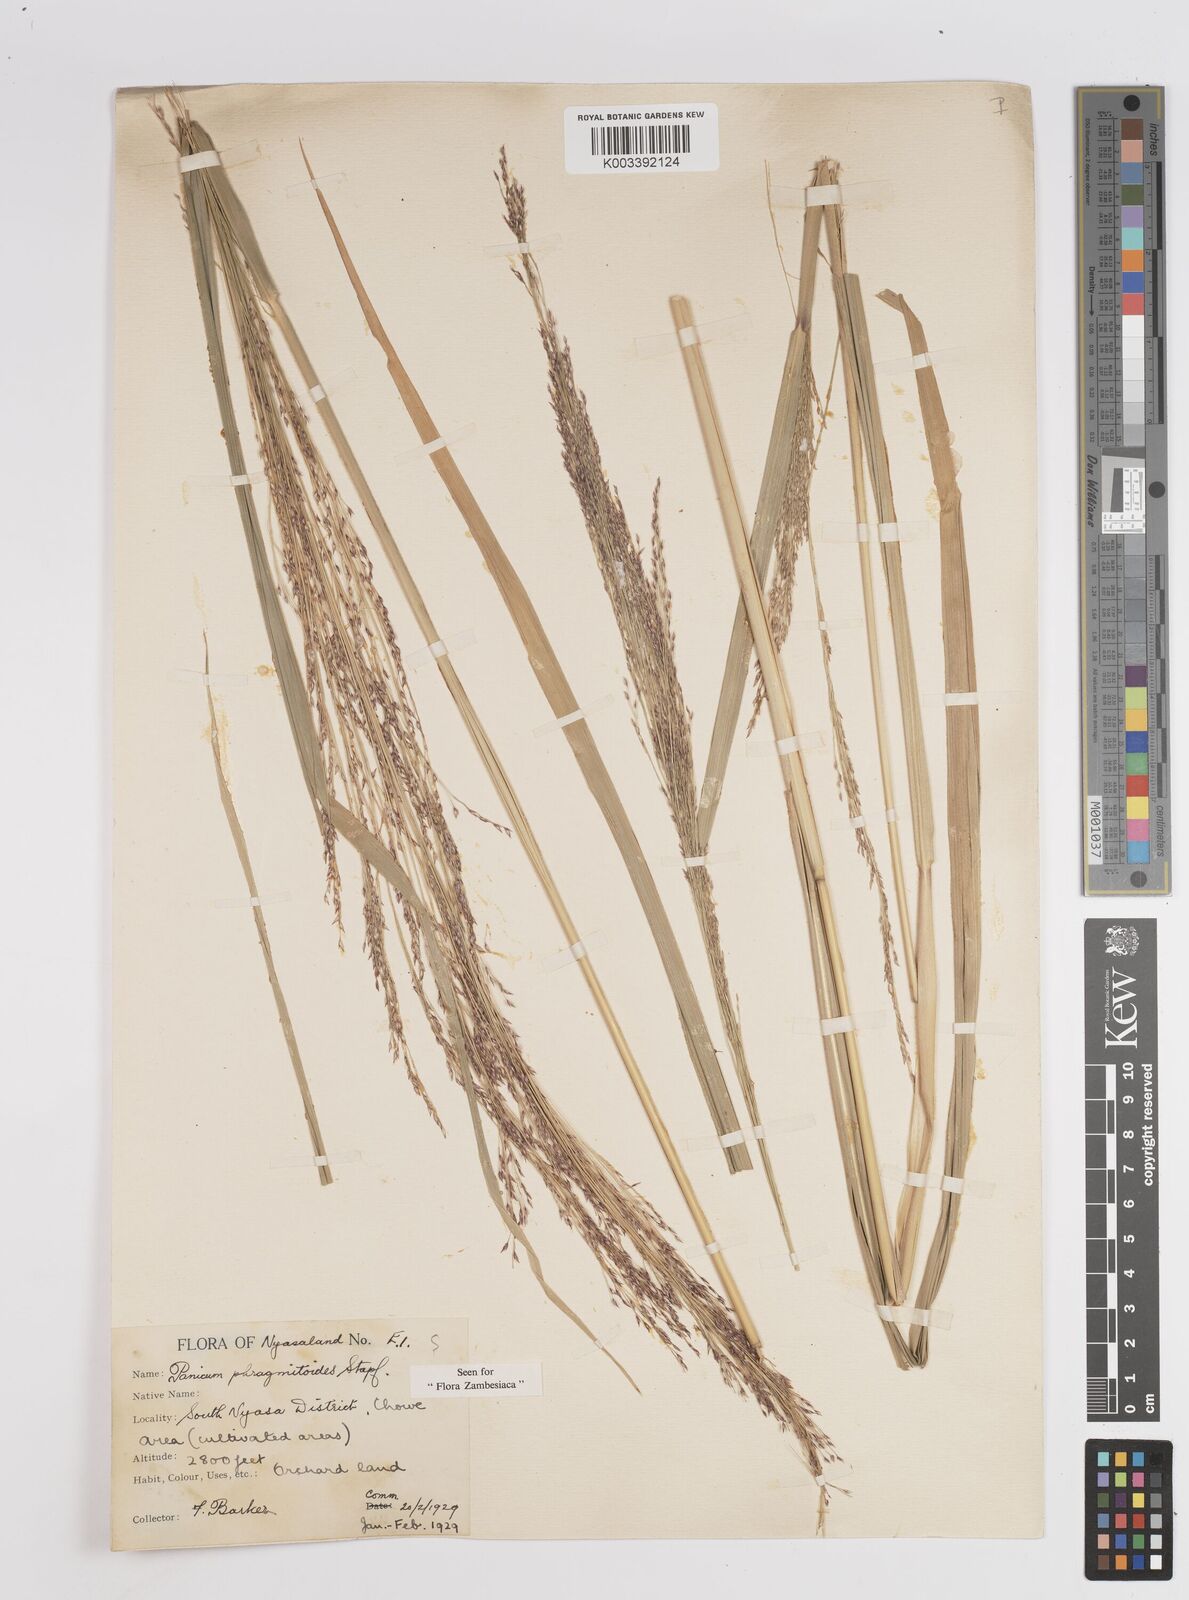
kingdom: Plantae
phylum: Tracheophyta
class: Liliopsida
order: Poales
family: Poaceae
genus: Panicum
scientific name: Panicum phragmitoides
